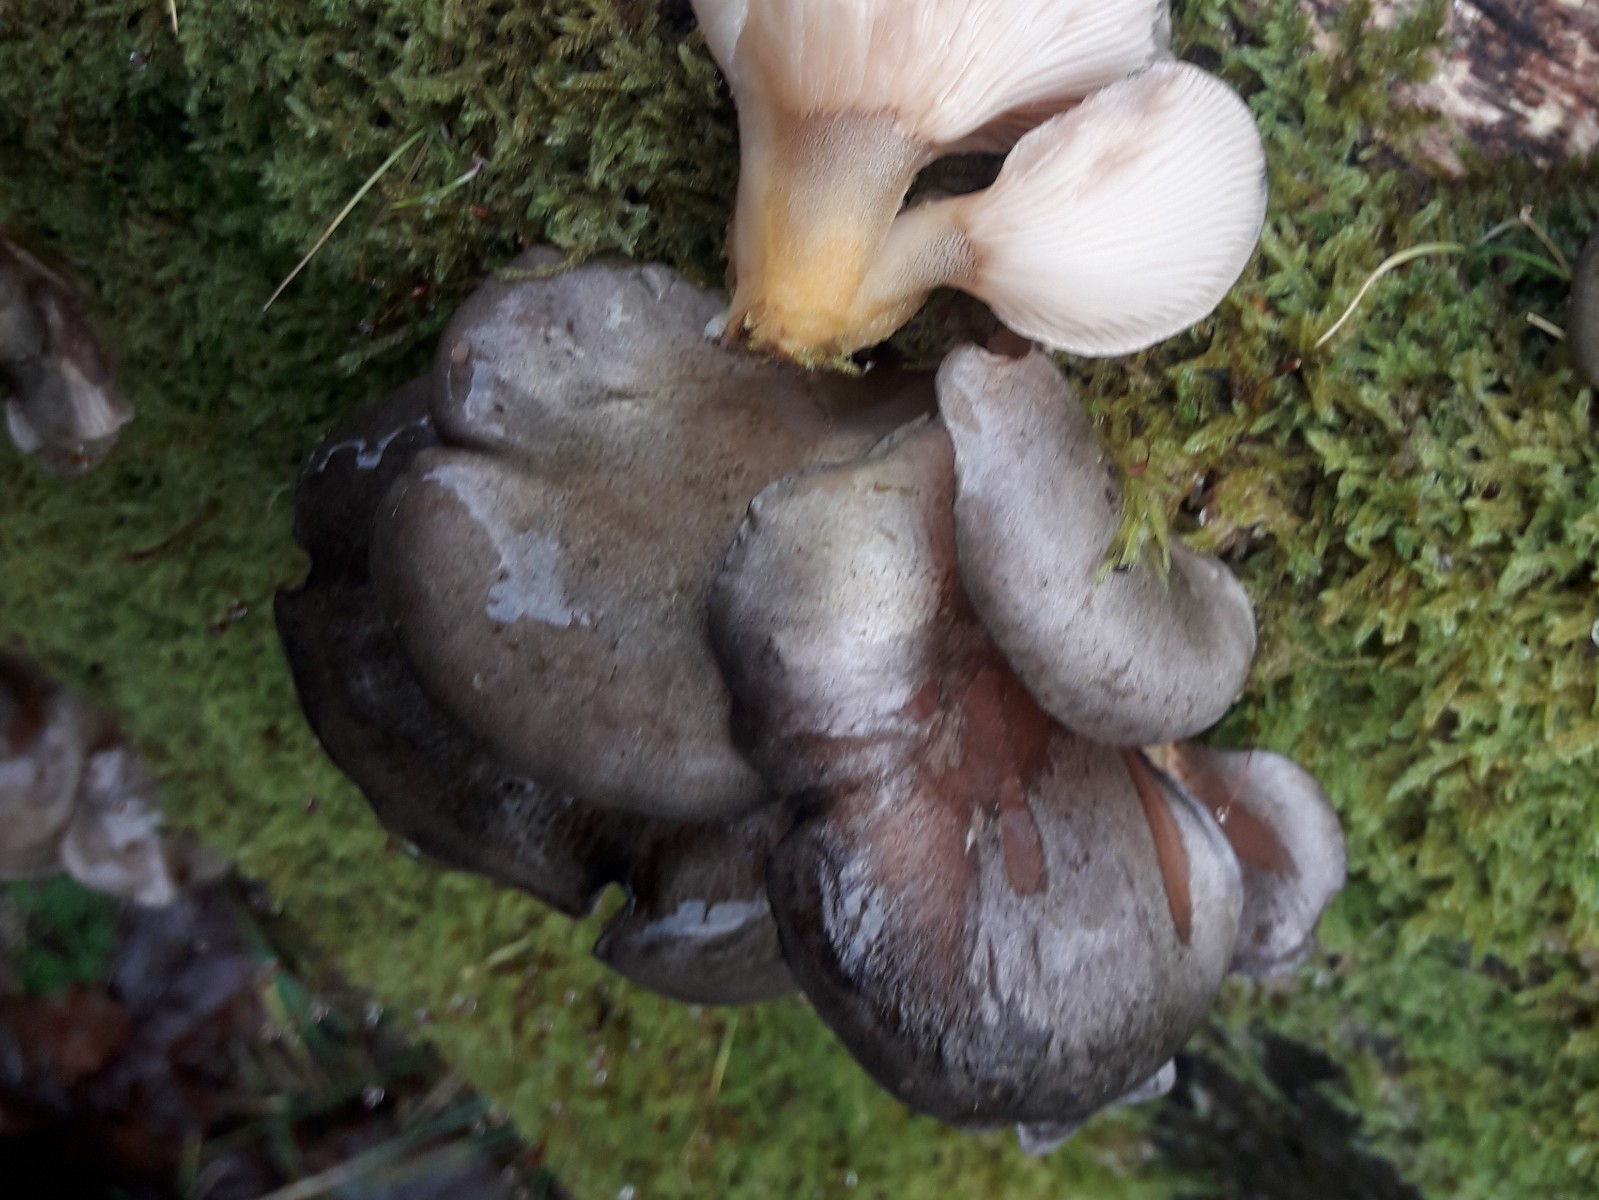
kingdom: Fungi
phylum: Basidiomycota
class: Agaricomycetes
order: Agaricales
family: Sarcomyxaceae
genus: Sarcomyxa
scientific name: Sarcomyxa serotina
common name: gummihat
